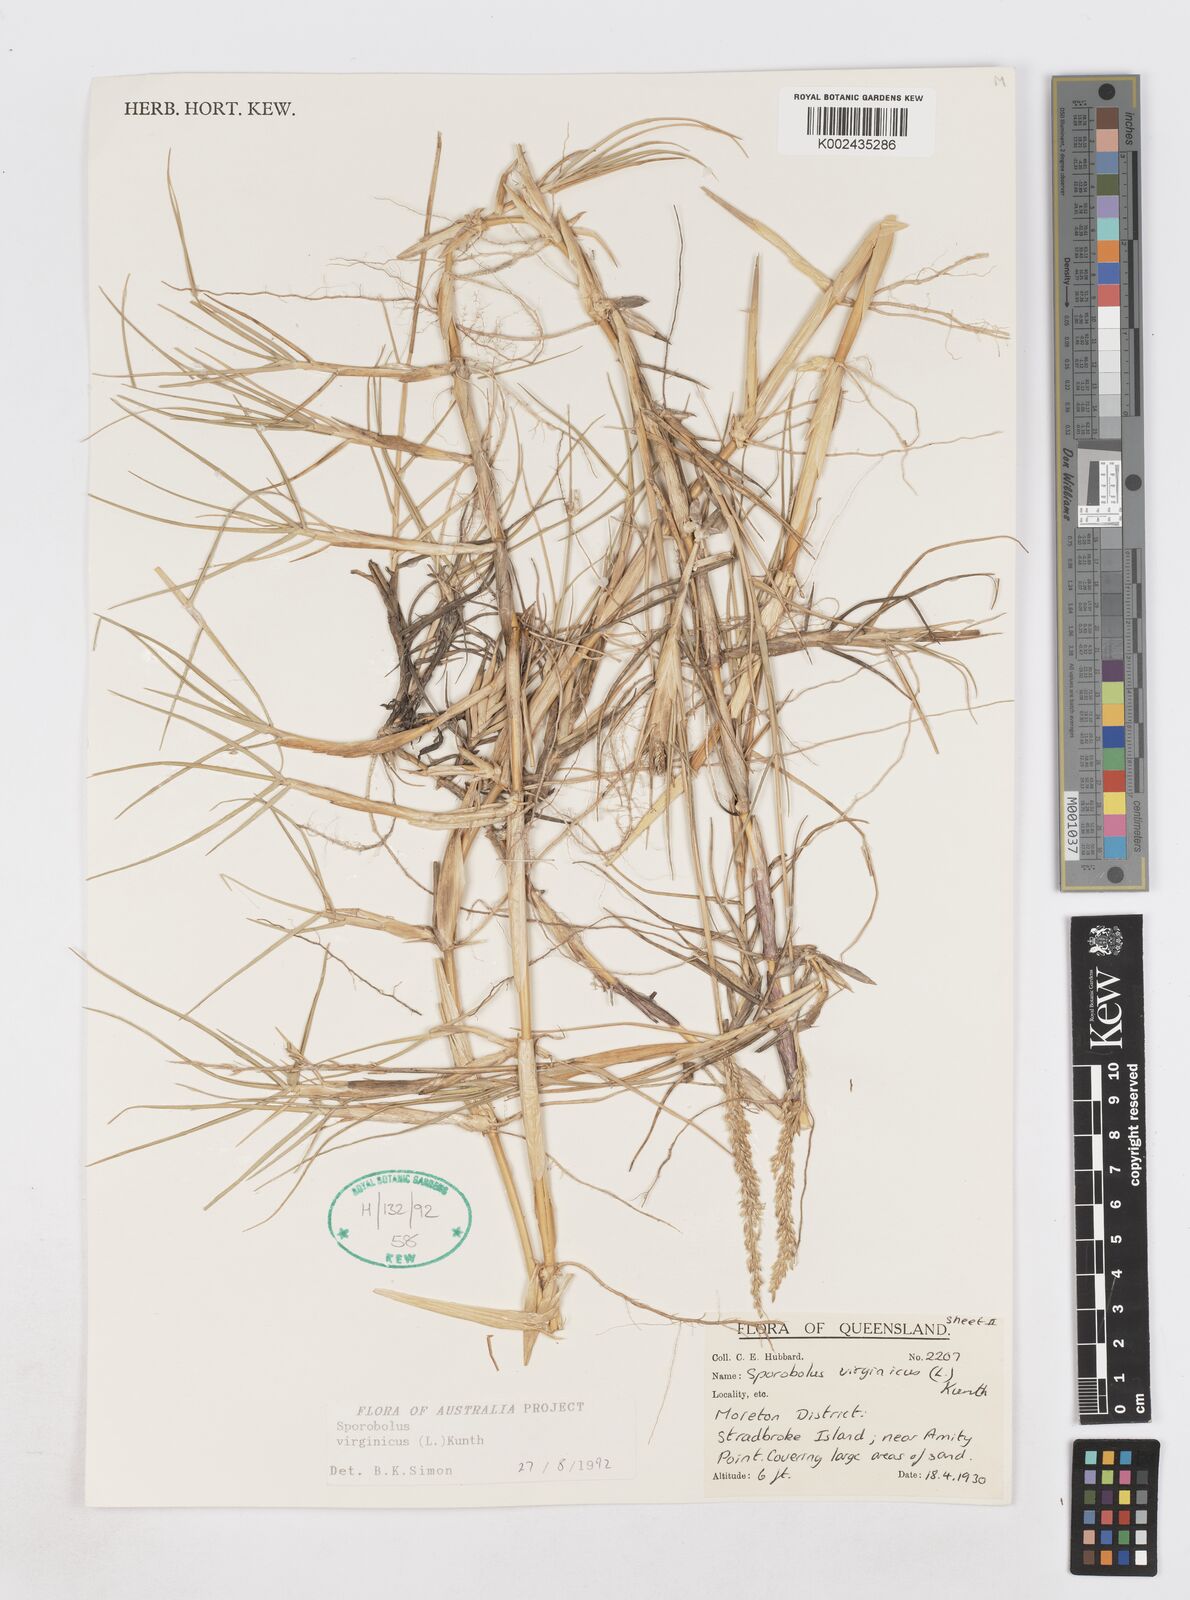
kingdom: Plantae
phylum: Tracheophyta
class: Liliopsida
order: Poales
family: Poaceae
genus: Sporobolus
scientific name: Sporobolus virginicus
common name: Beach dropseed
